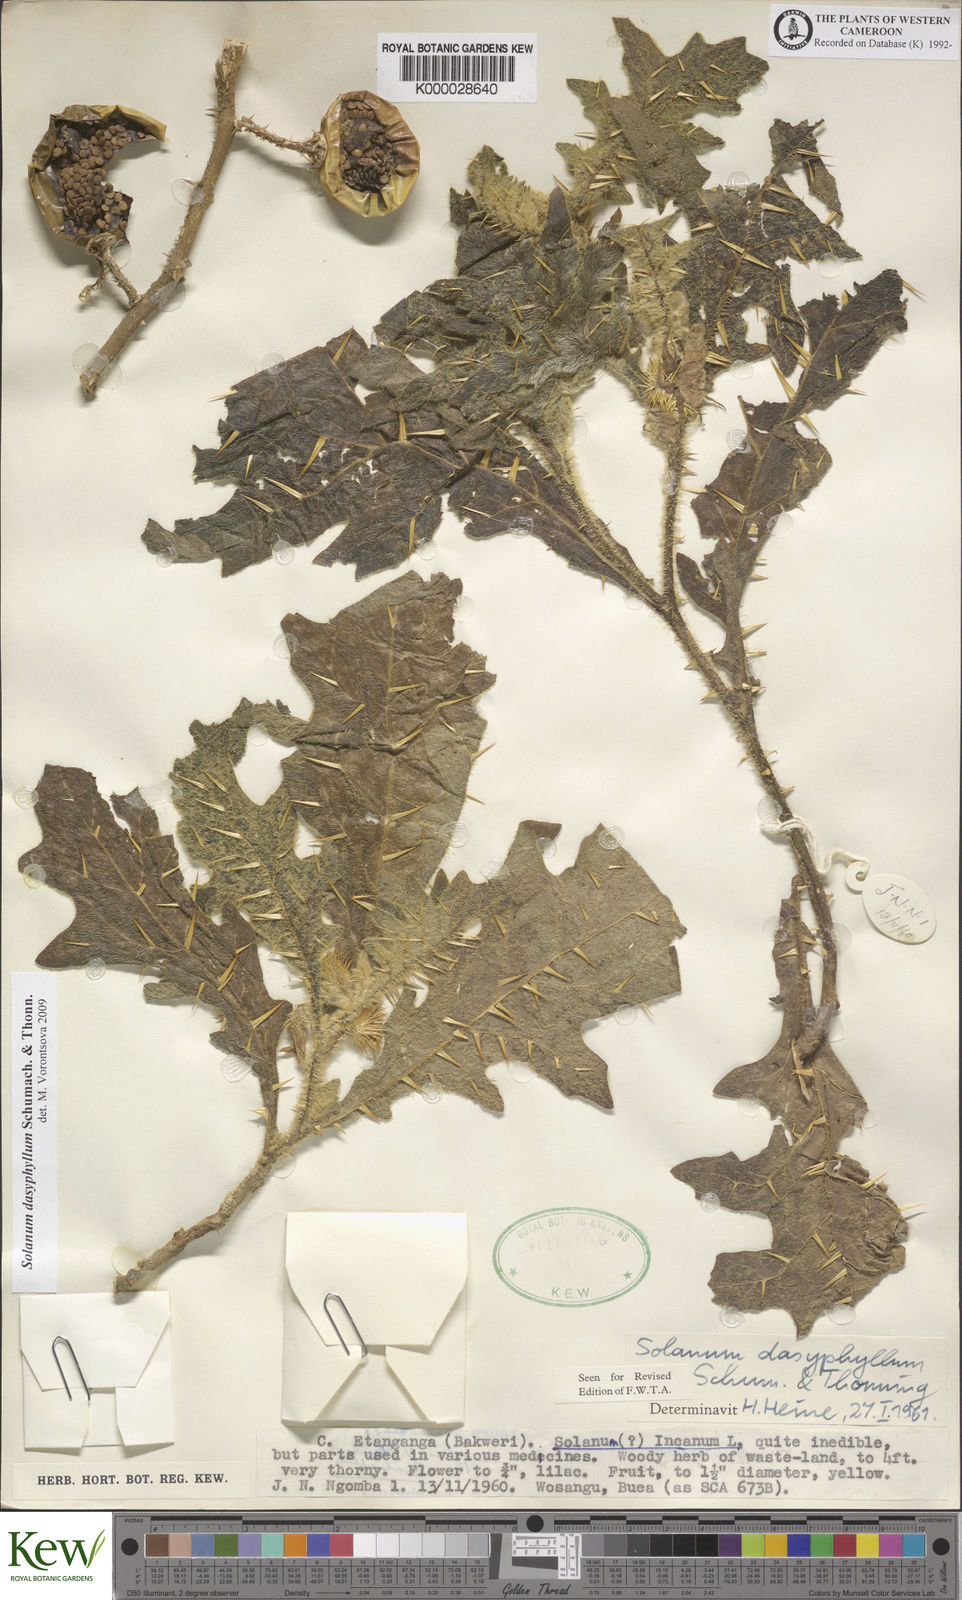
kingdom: Plantae
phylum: Tracheophyta
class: Magnoliopsida
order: Solanales
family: Solanaceae
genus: Solanum
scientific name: Solanum dasyphyllum
